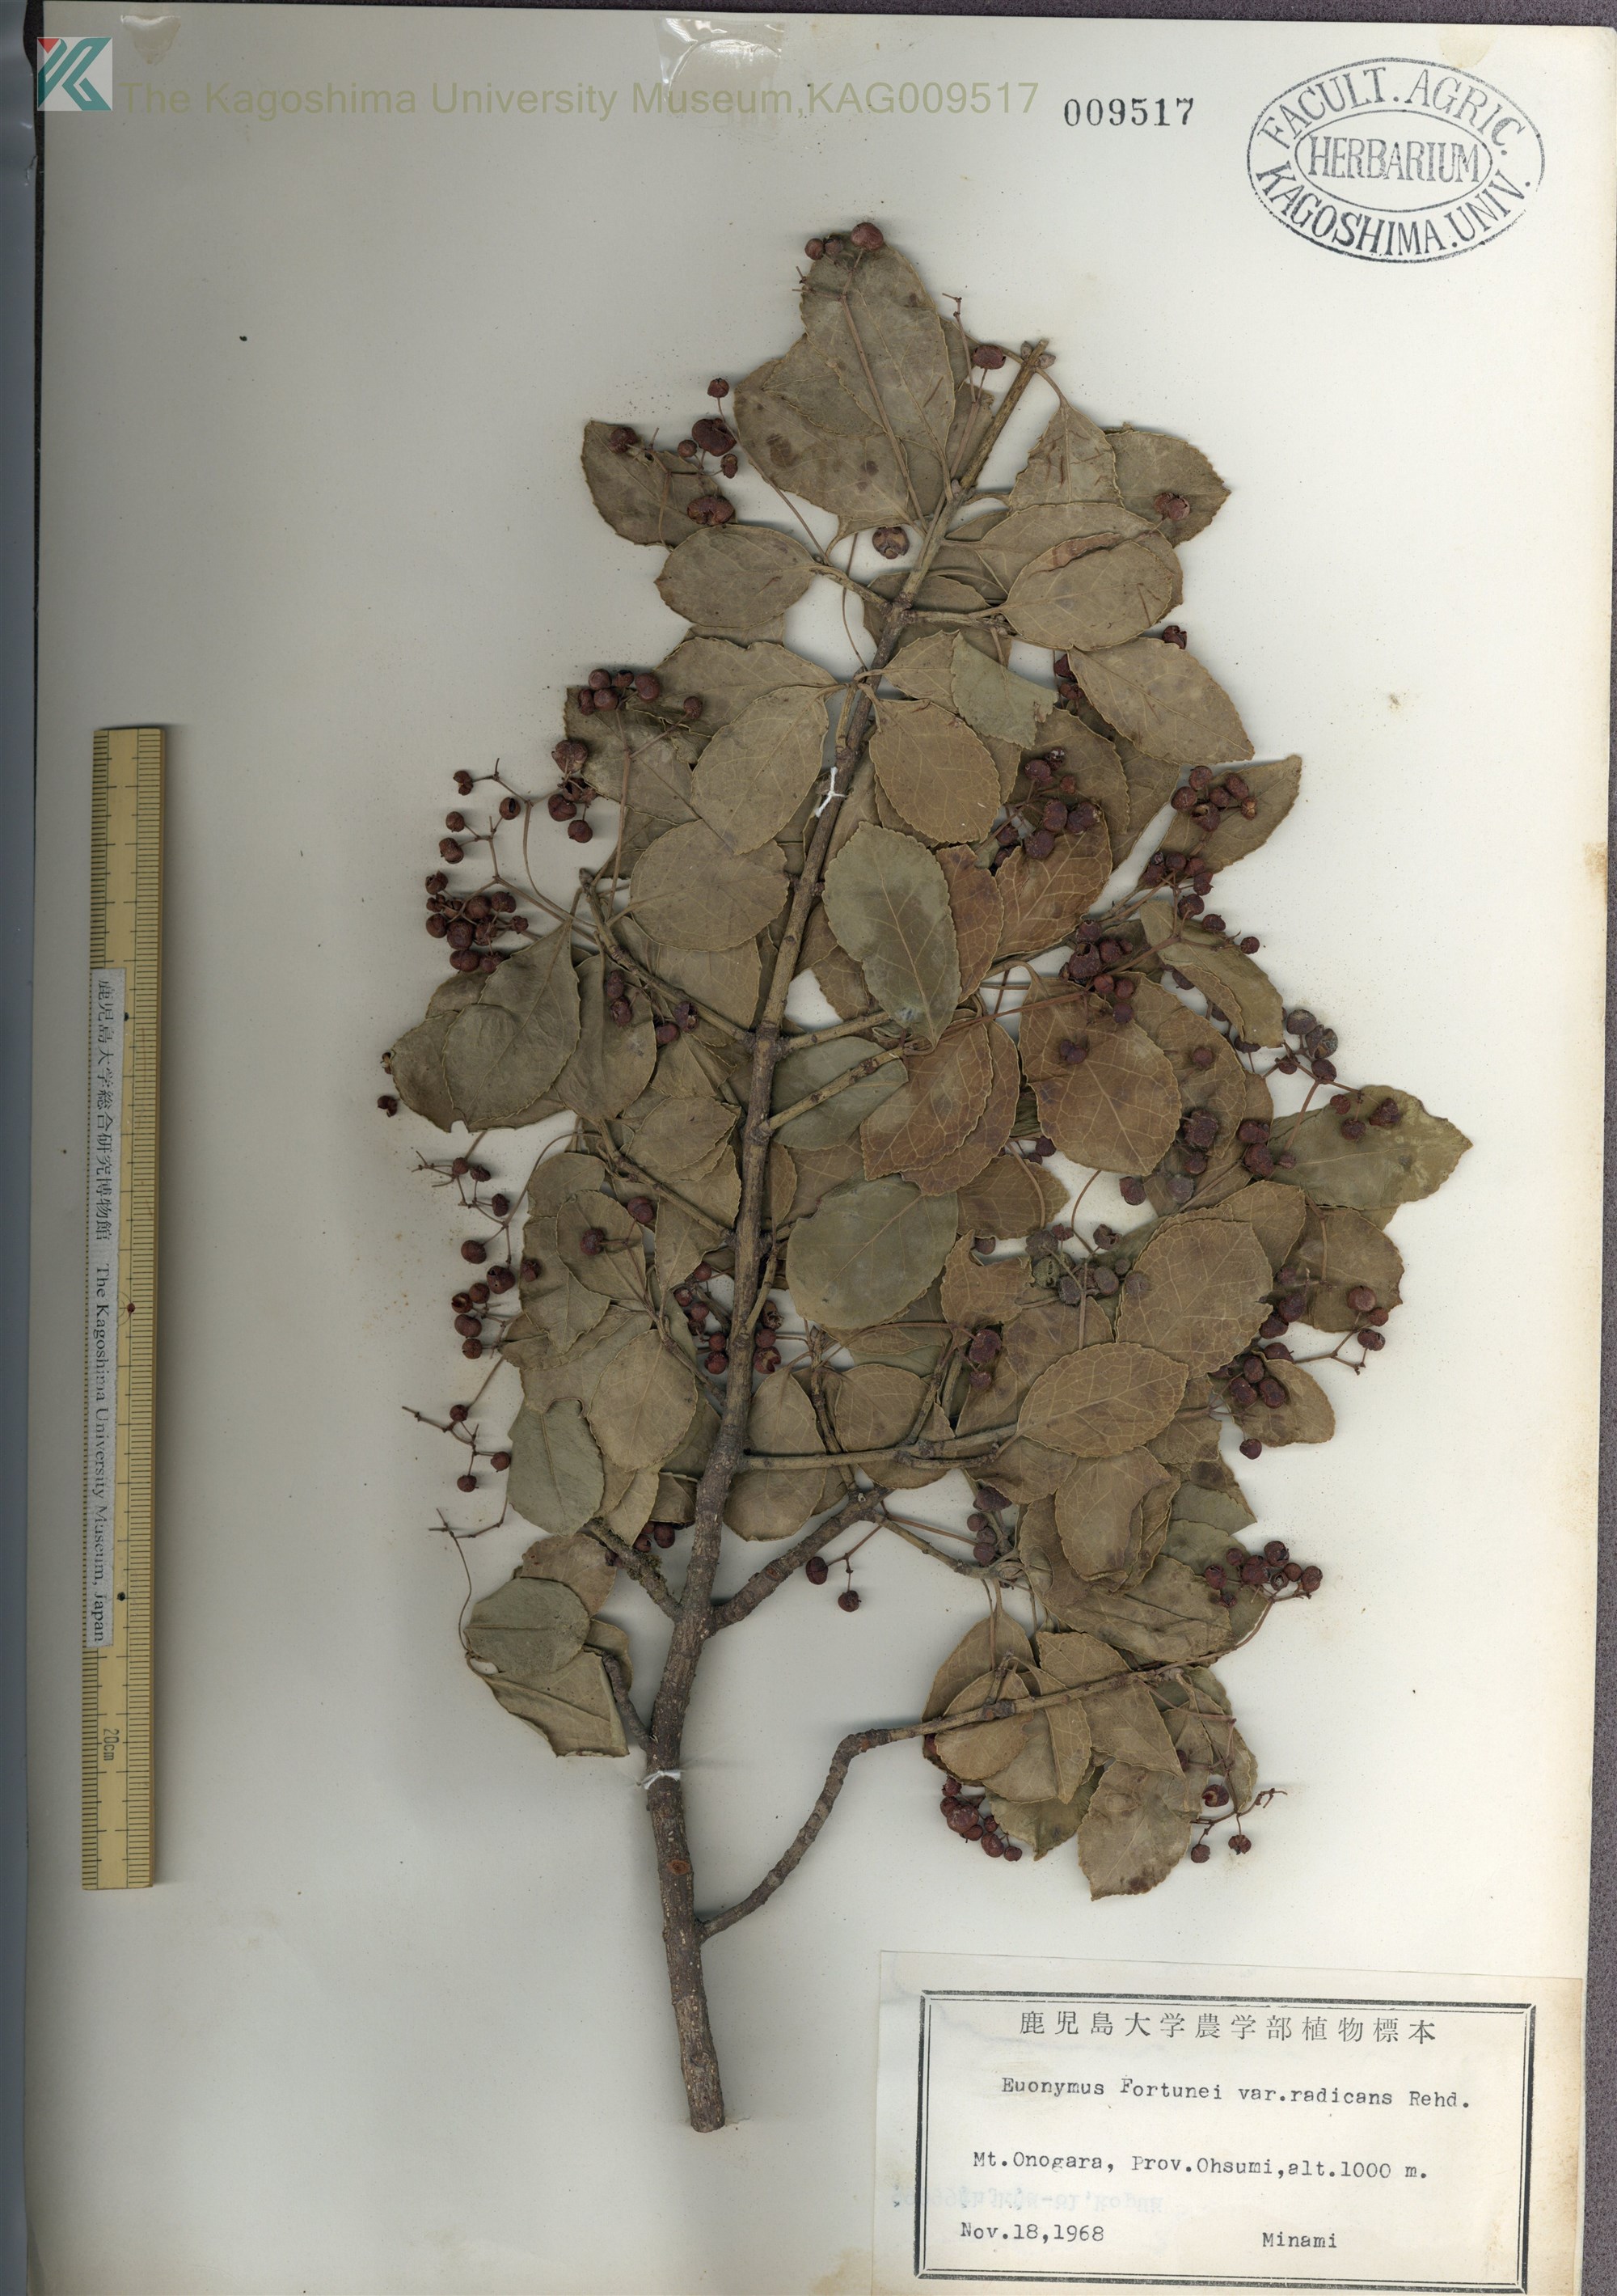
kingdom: Plantae
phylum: Tracheophyta
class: Magnoliopsida
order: Celastrales
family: Celastraceae
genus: Euonymus
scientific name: Euonymus fortunei
